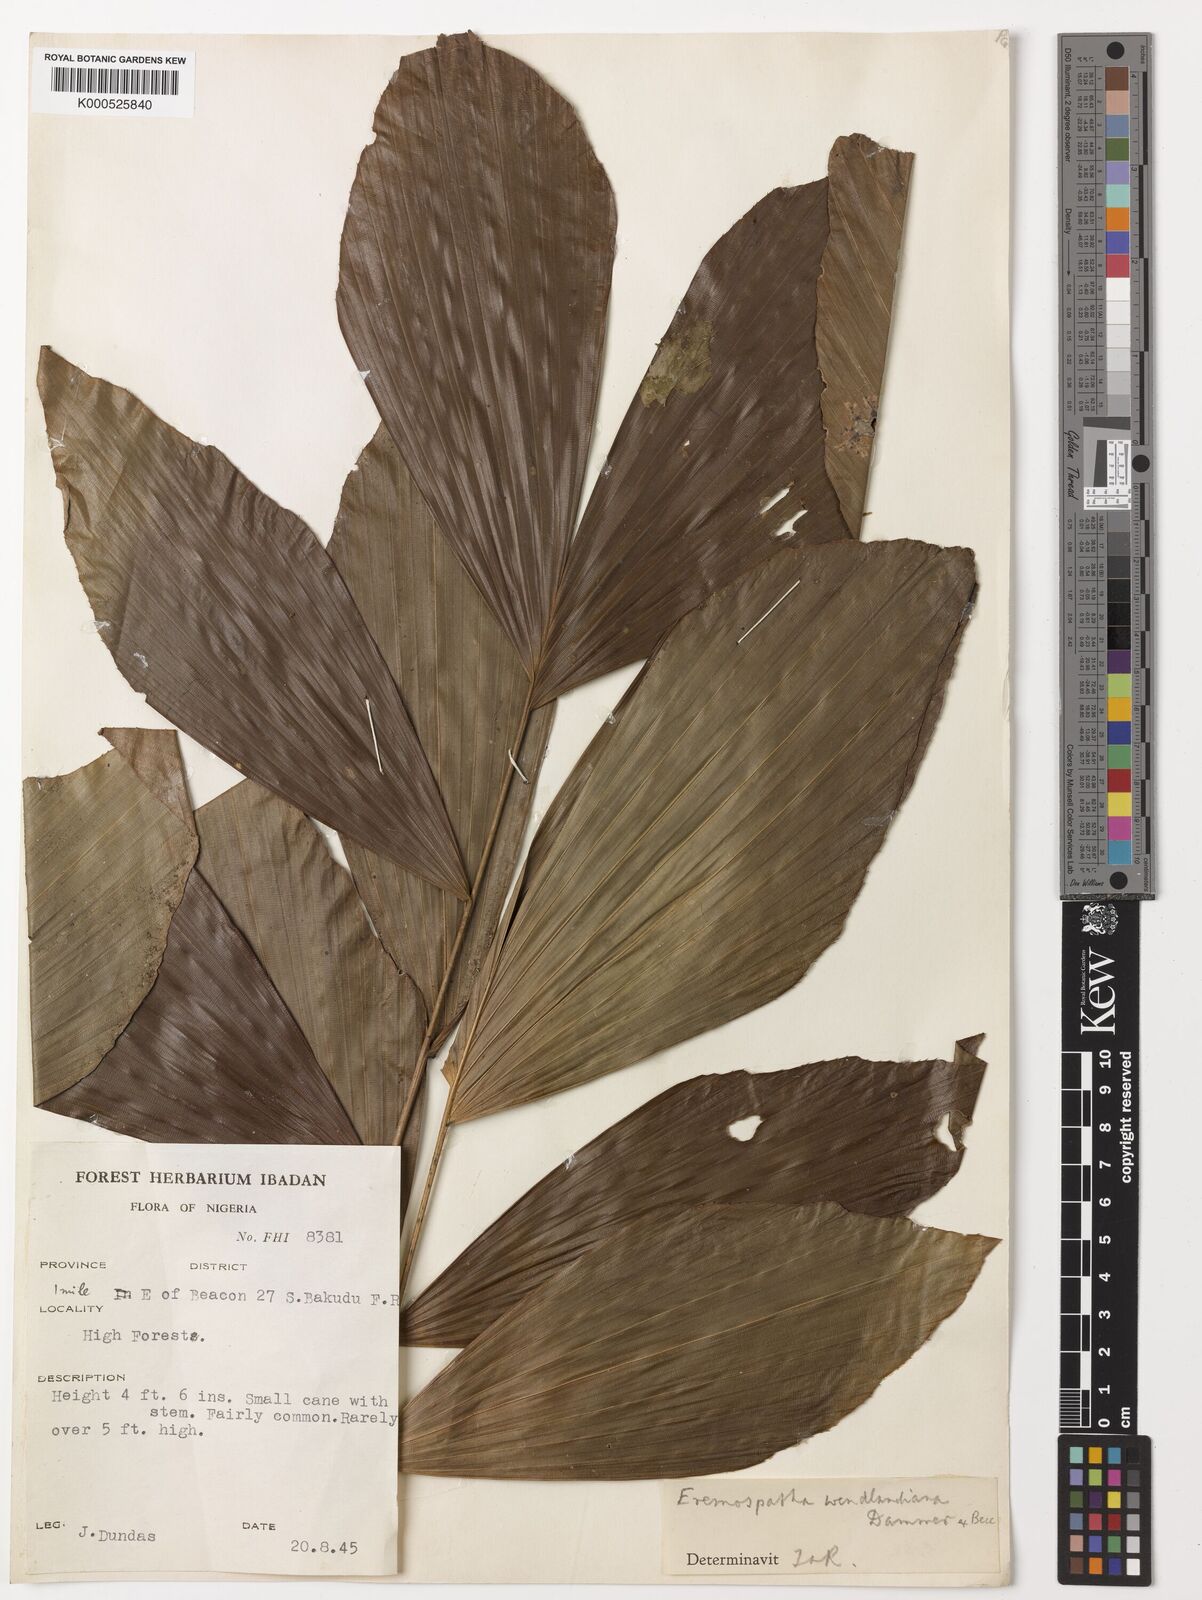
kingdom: Plantae
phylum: Tracheophyta
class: Liliopsida
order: Arecales
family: Arecaceae
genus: Eremospatha
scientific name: Eremospatha wendlandiana
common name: Rattan
